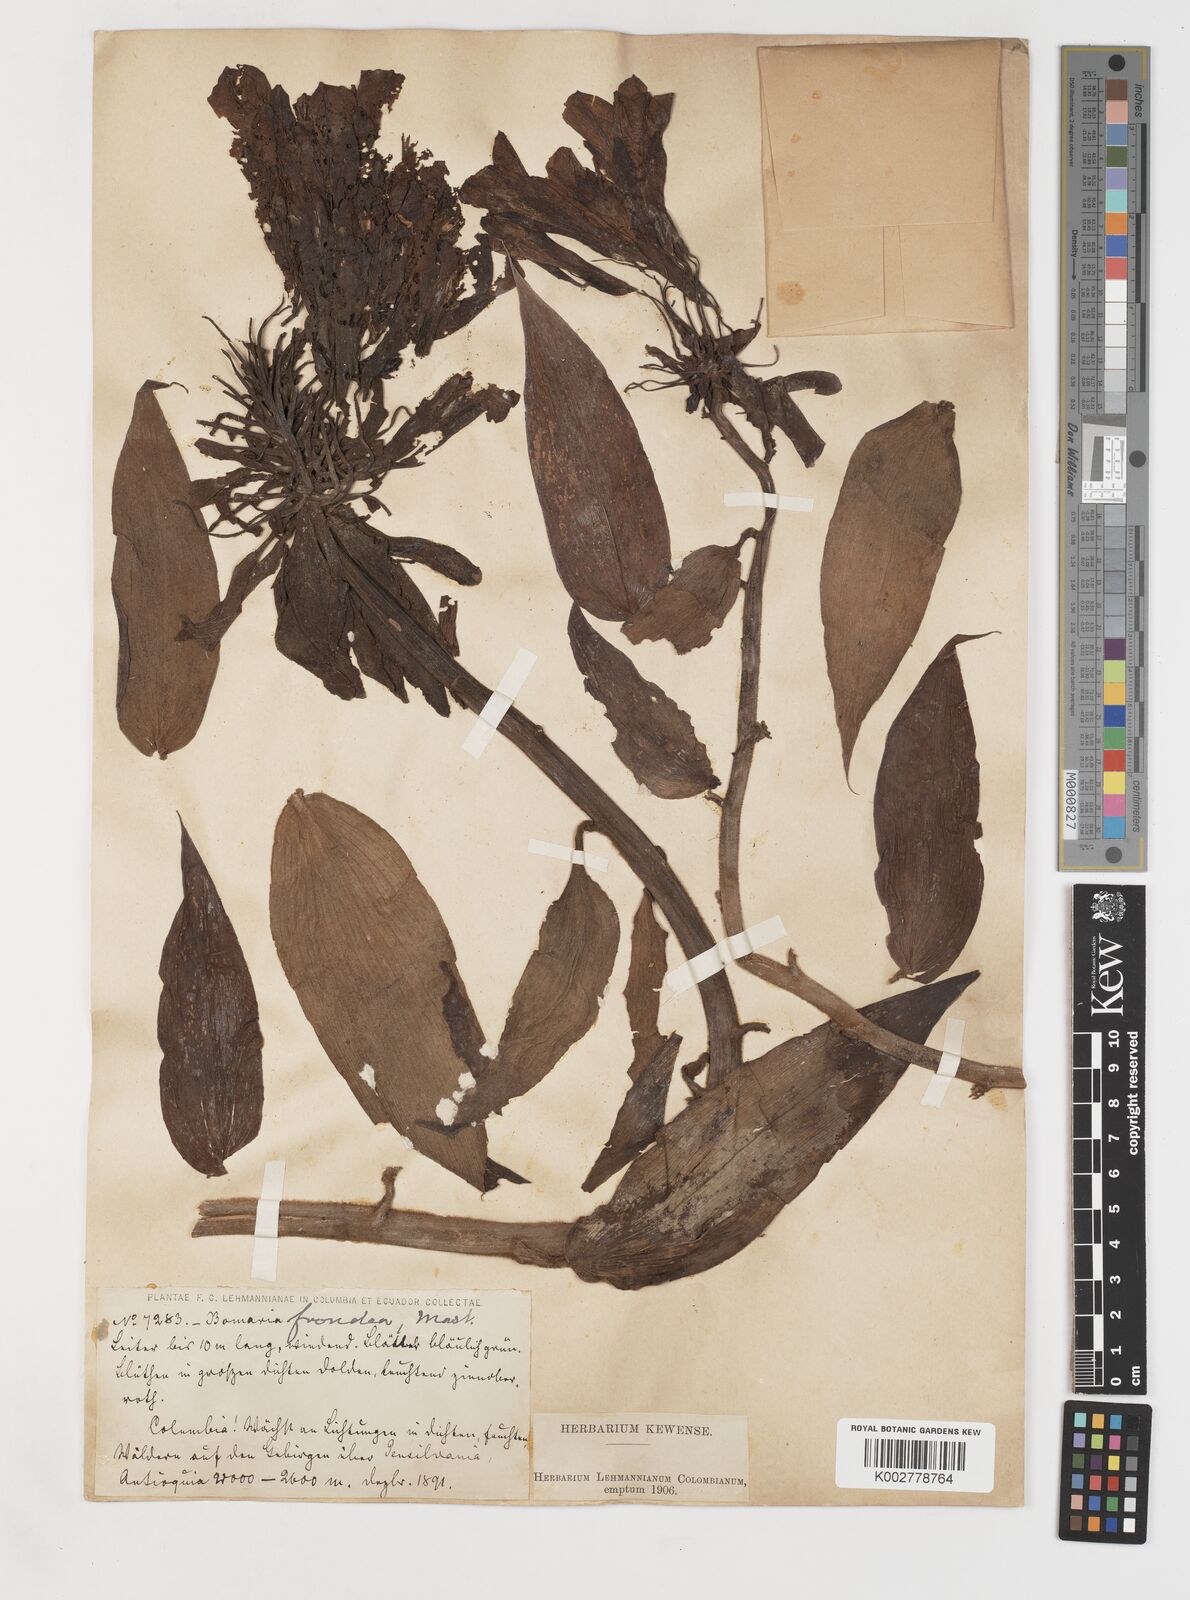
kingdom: Plantae
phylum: Tracheophyta
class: Liliopsida
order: Liliales
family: Alstroemeriaceae
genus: Bomarea
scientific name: Bomarea patinii
